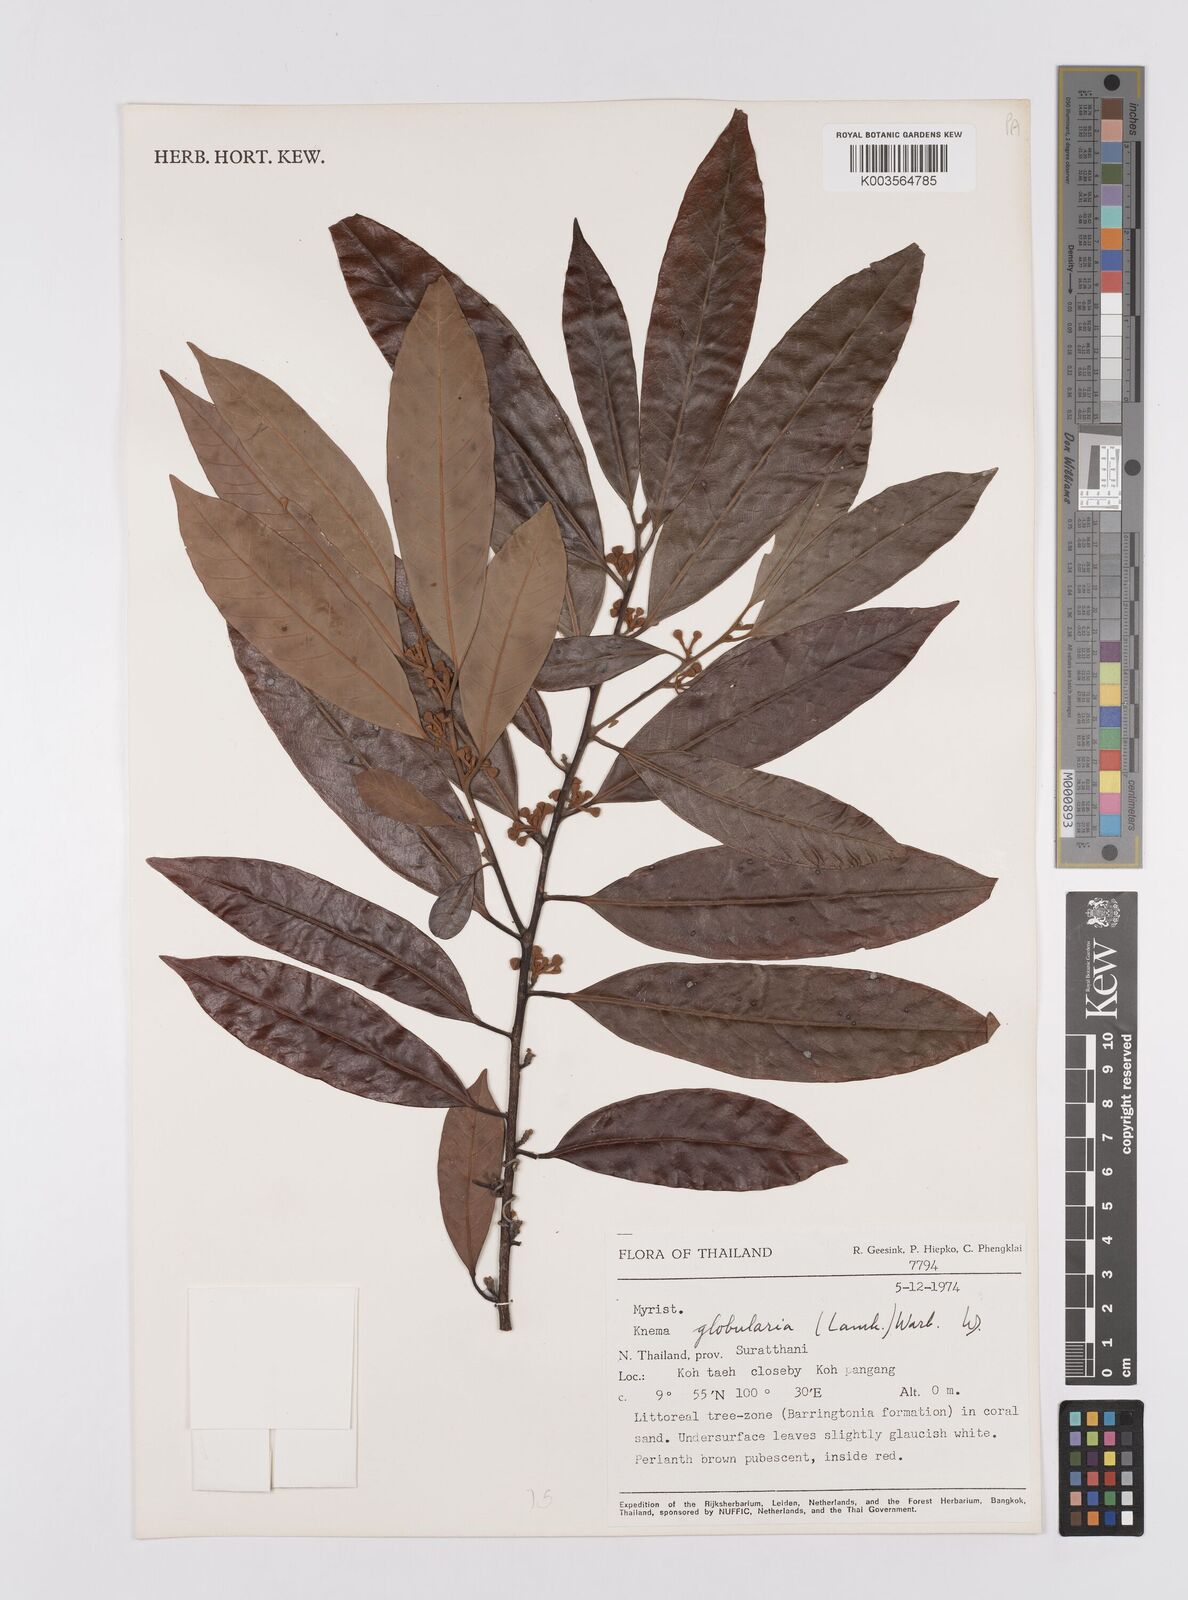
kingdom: Plantae
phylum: Tracheophyta
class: Magnoliopsida
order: Magnoliales
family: Myristicaceae
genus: Knema
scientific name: Knema globularia
